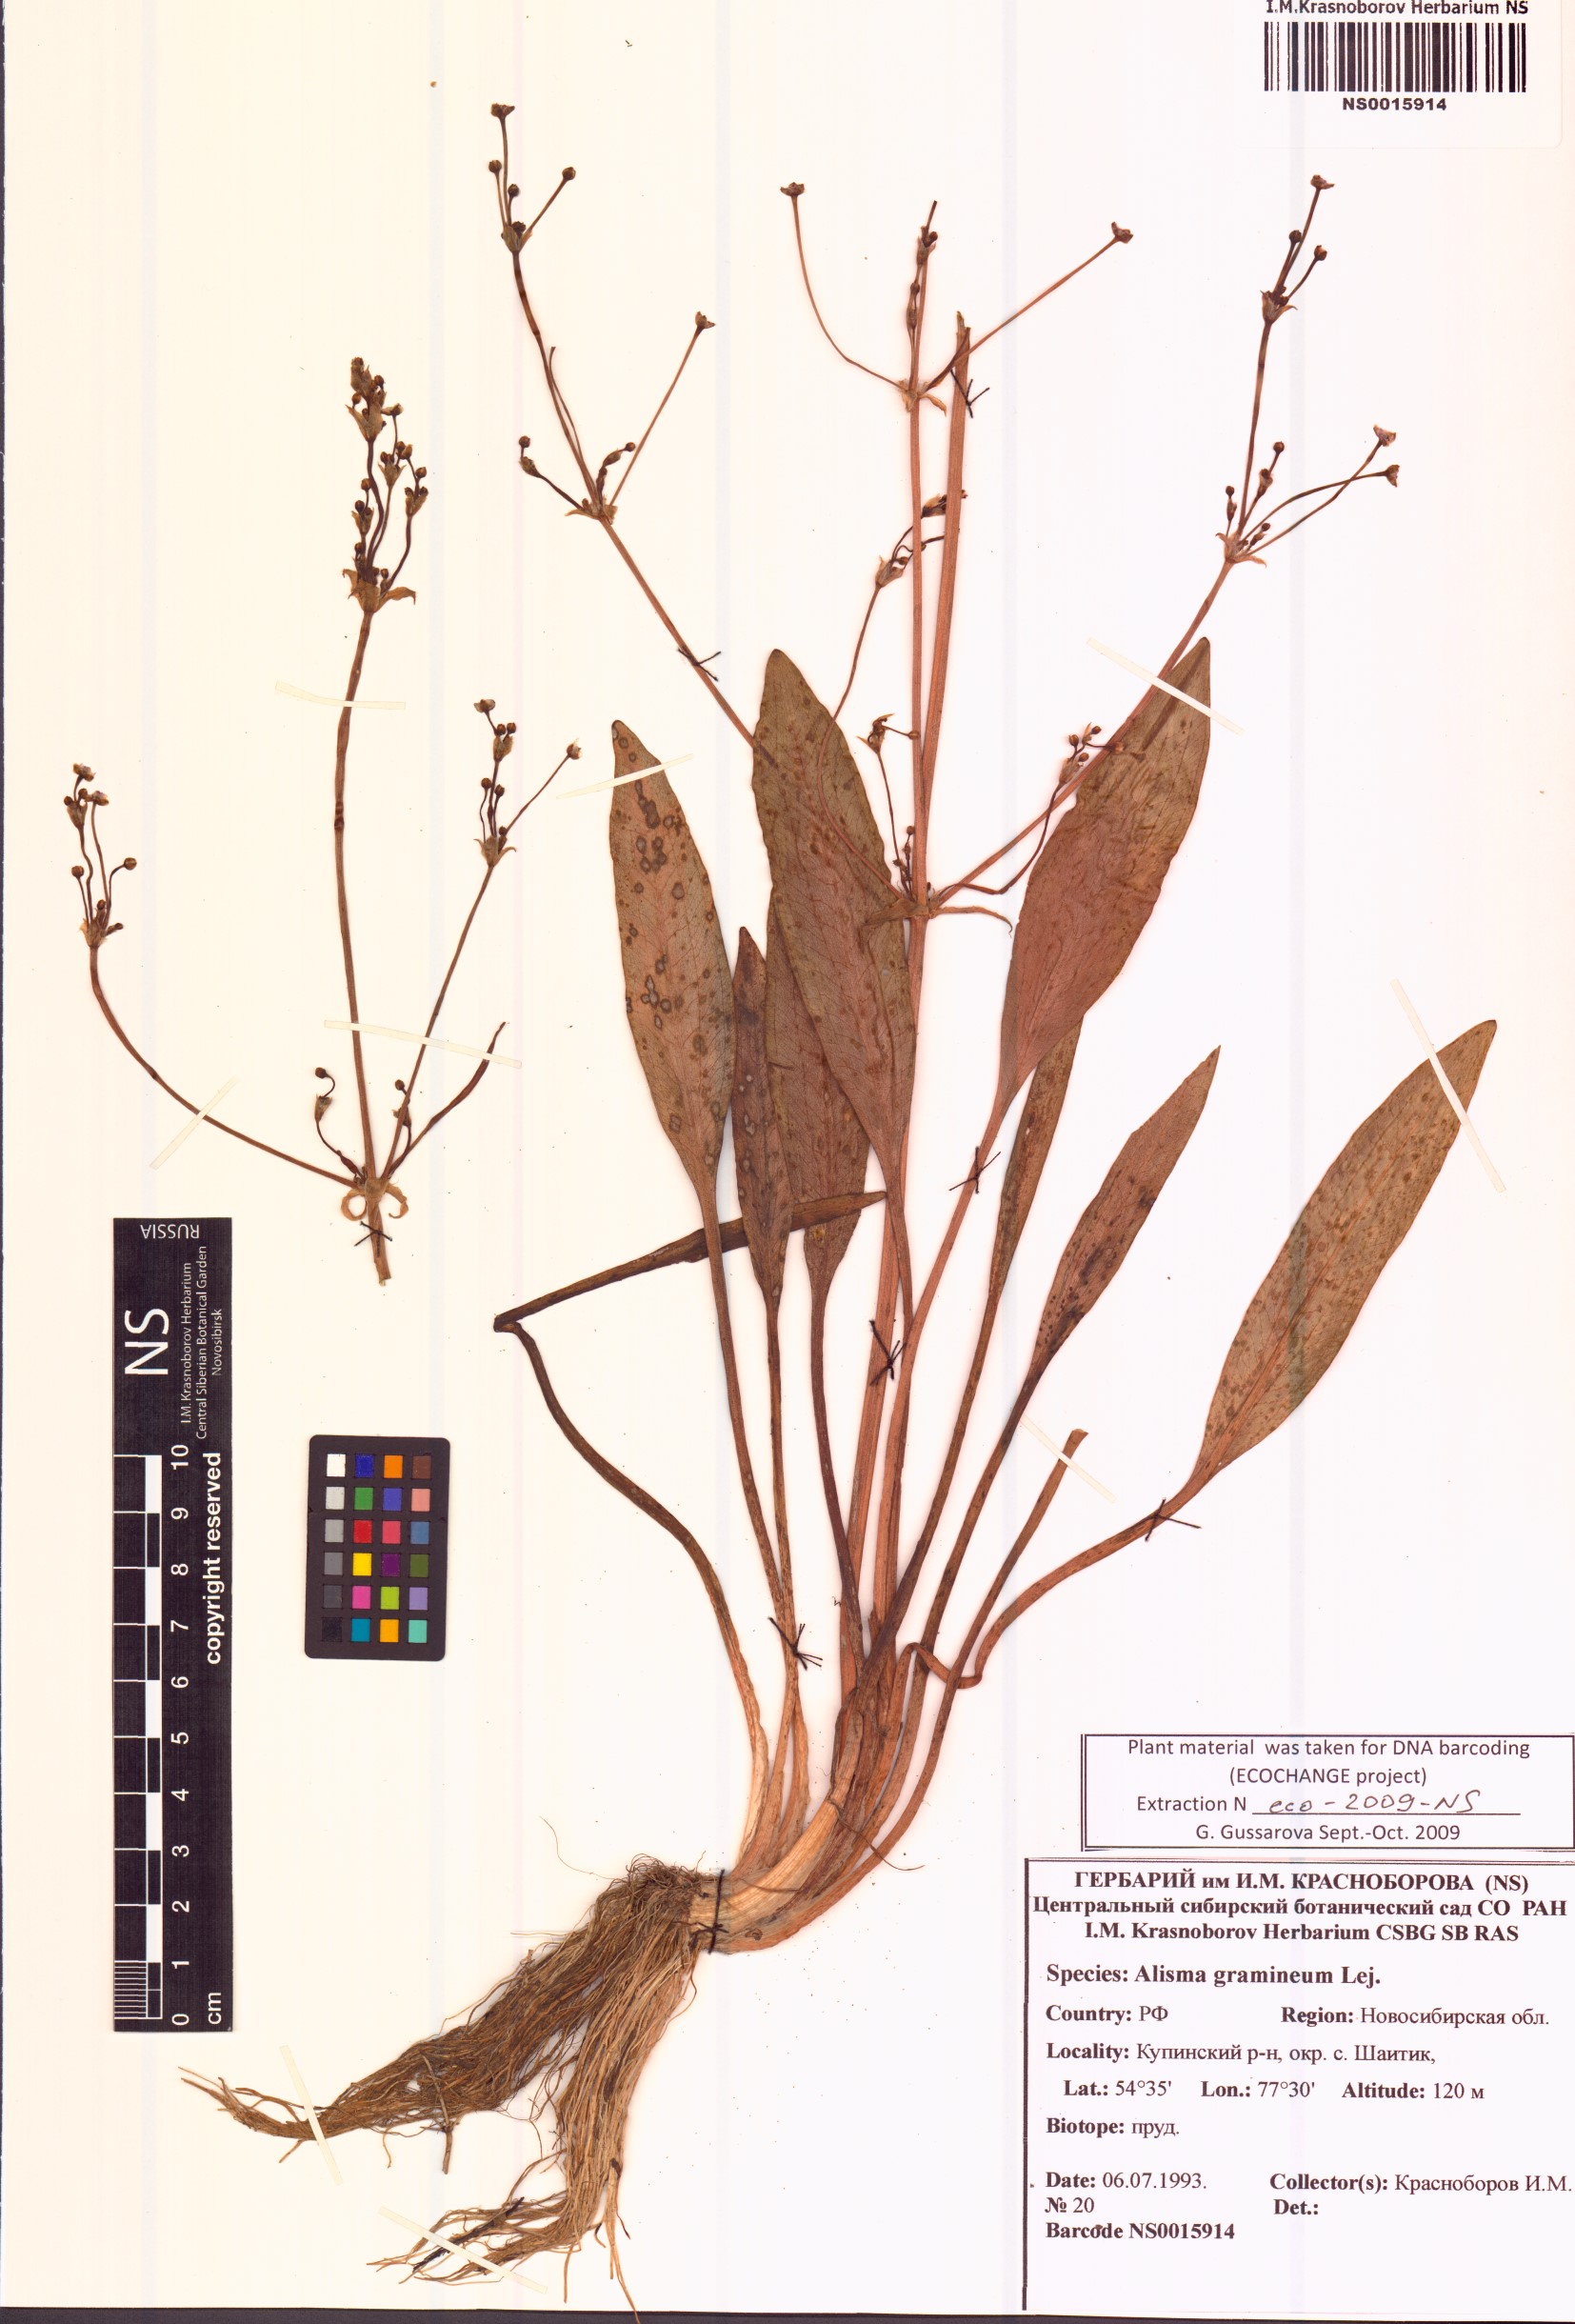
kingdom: Plantae
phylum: Tracheophyta
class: Liliopsida
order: Alismatales
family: Alismataceae
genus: Alisma
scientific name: Alisma gramineum
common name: Ribbon-leaved water-plantain
